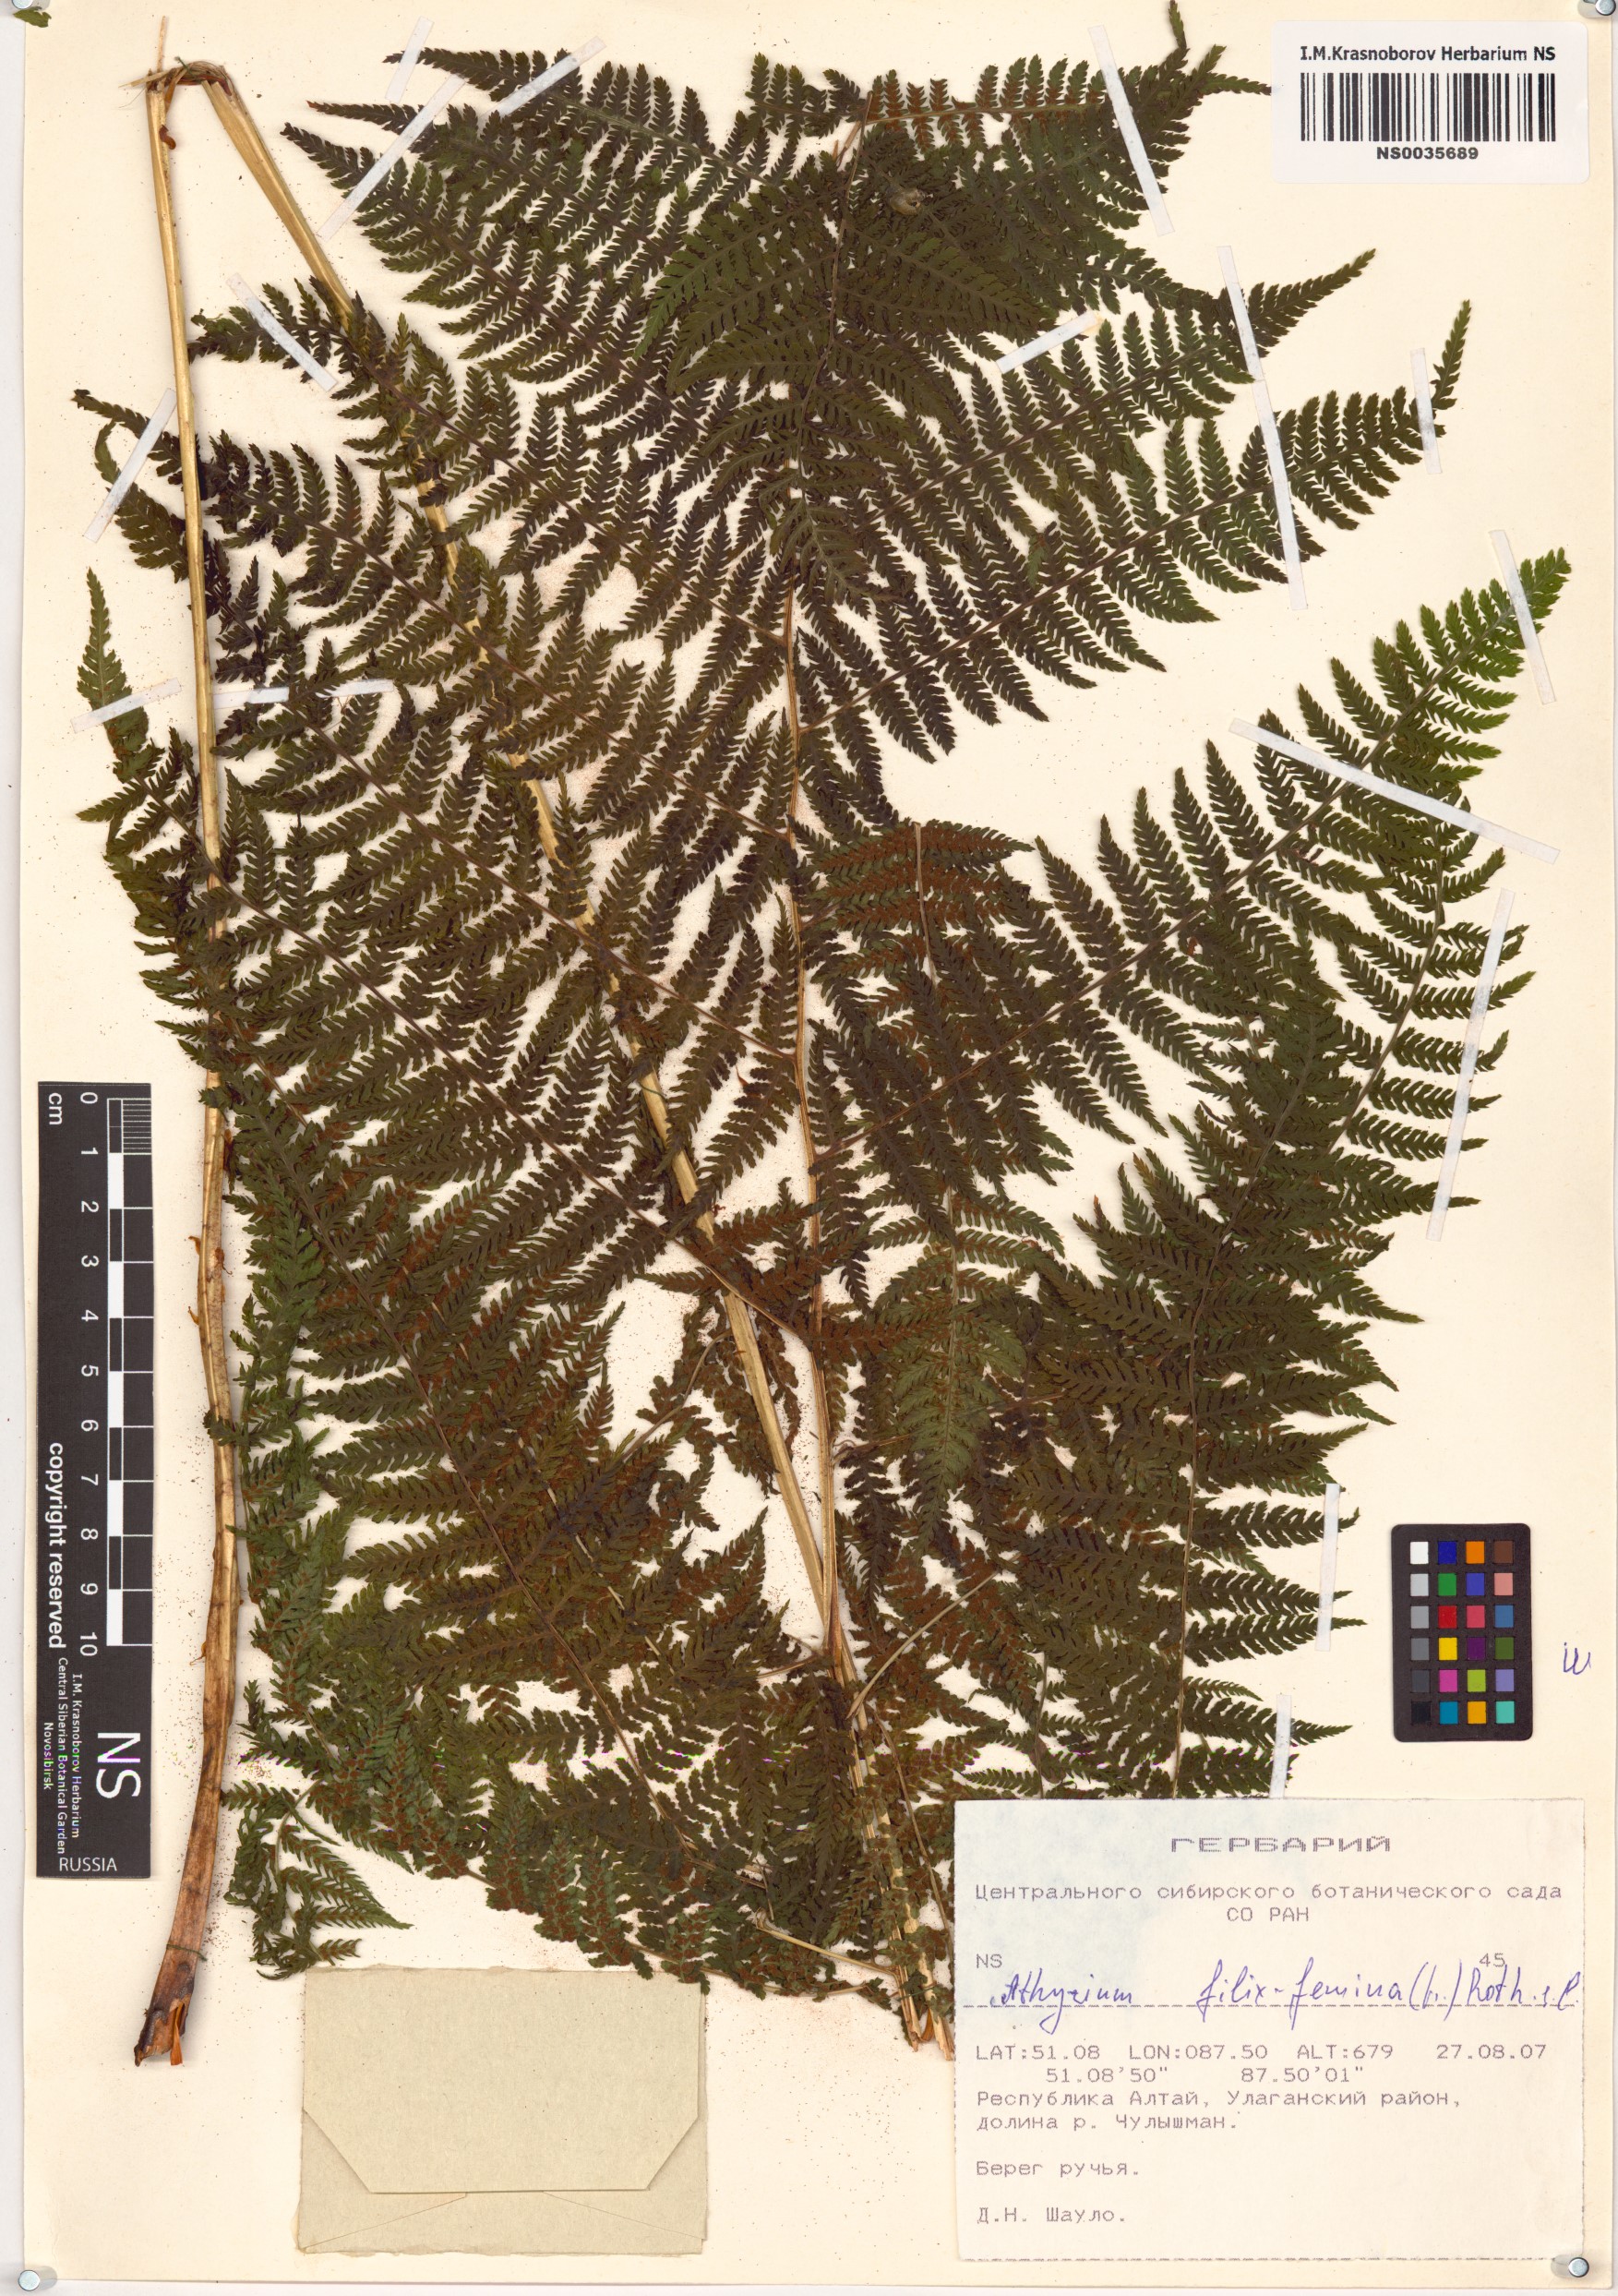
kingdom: Plantae
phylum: Tracheophyta
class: Polypodiopsida
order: Polypodiales
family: Athyriaceae
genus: Athyrium
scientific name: Athyrium filix-femina
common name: Lady fern
